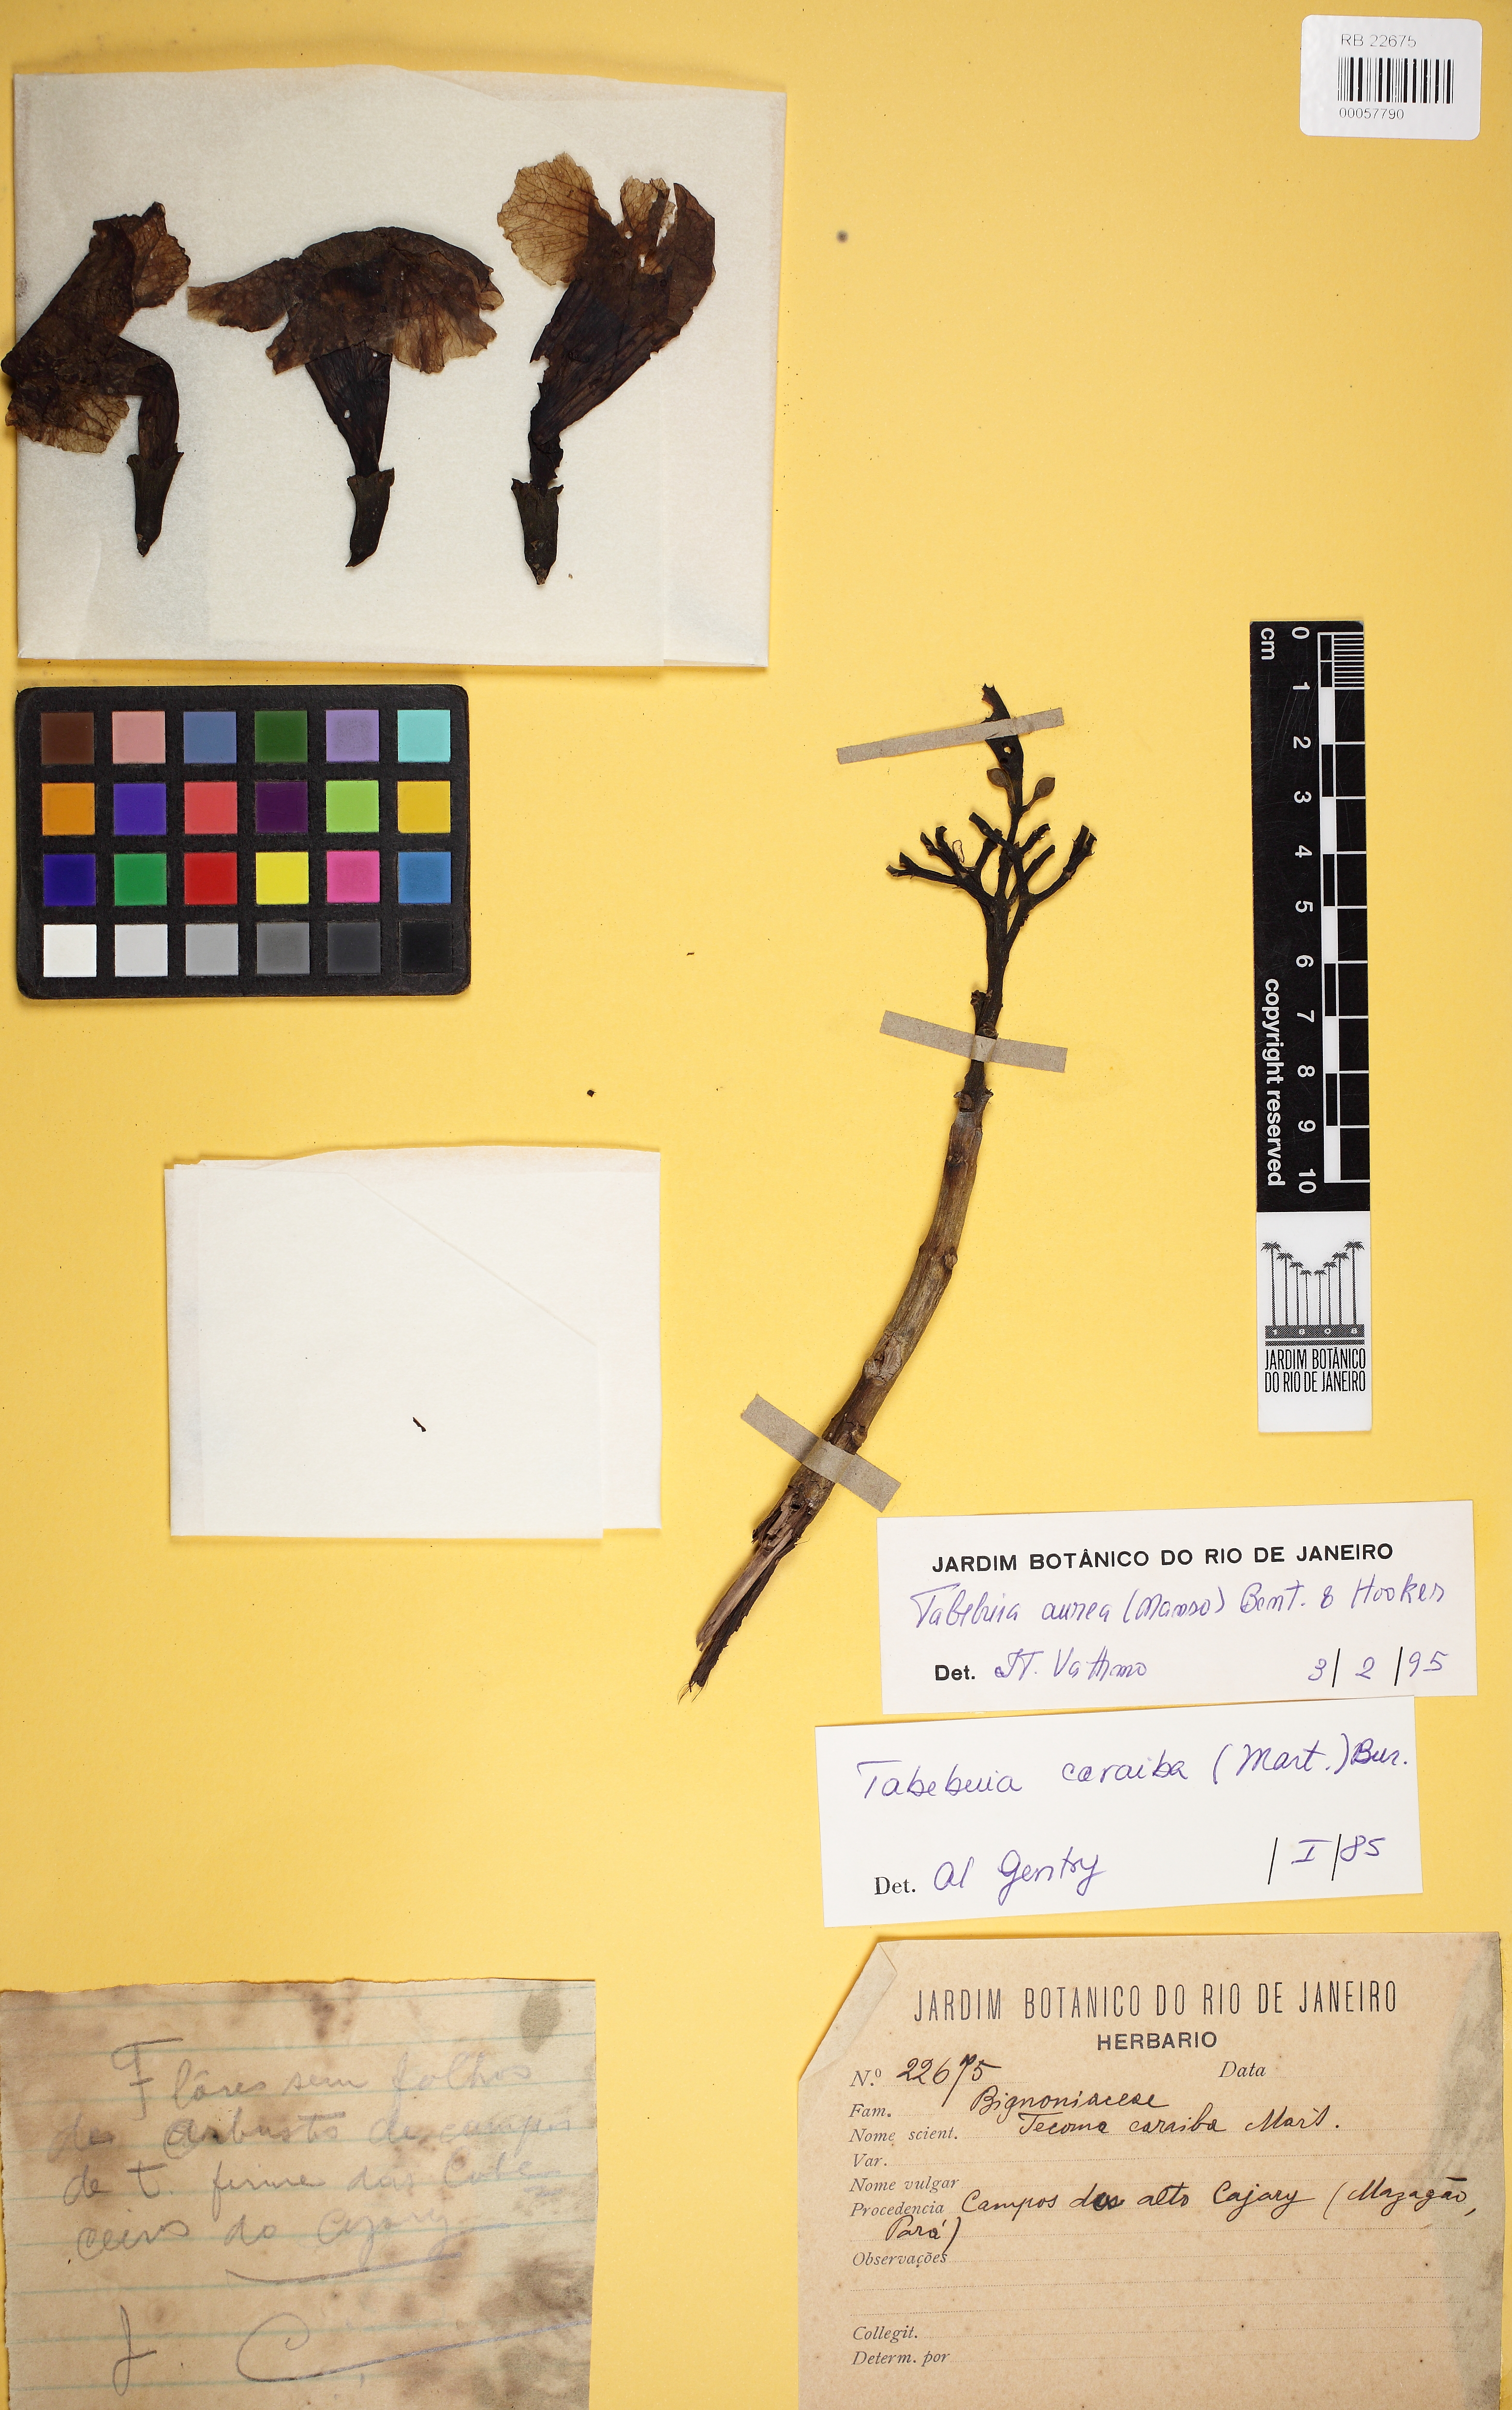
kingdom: Plantae
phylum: Tracheophyta
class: Magnoliopsida
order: Lamiales
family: Bignoniaceae
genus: Tabebuia
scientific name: Tabebuia aurea
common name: Caribbean trumpet-tree
